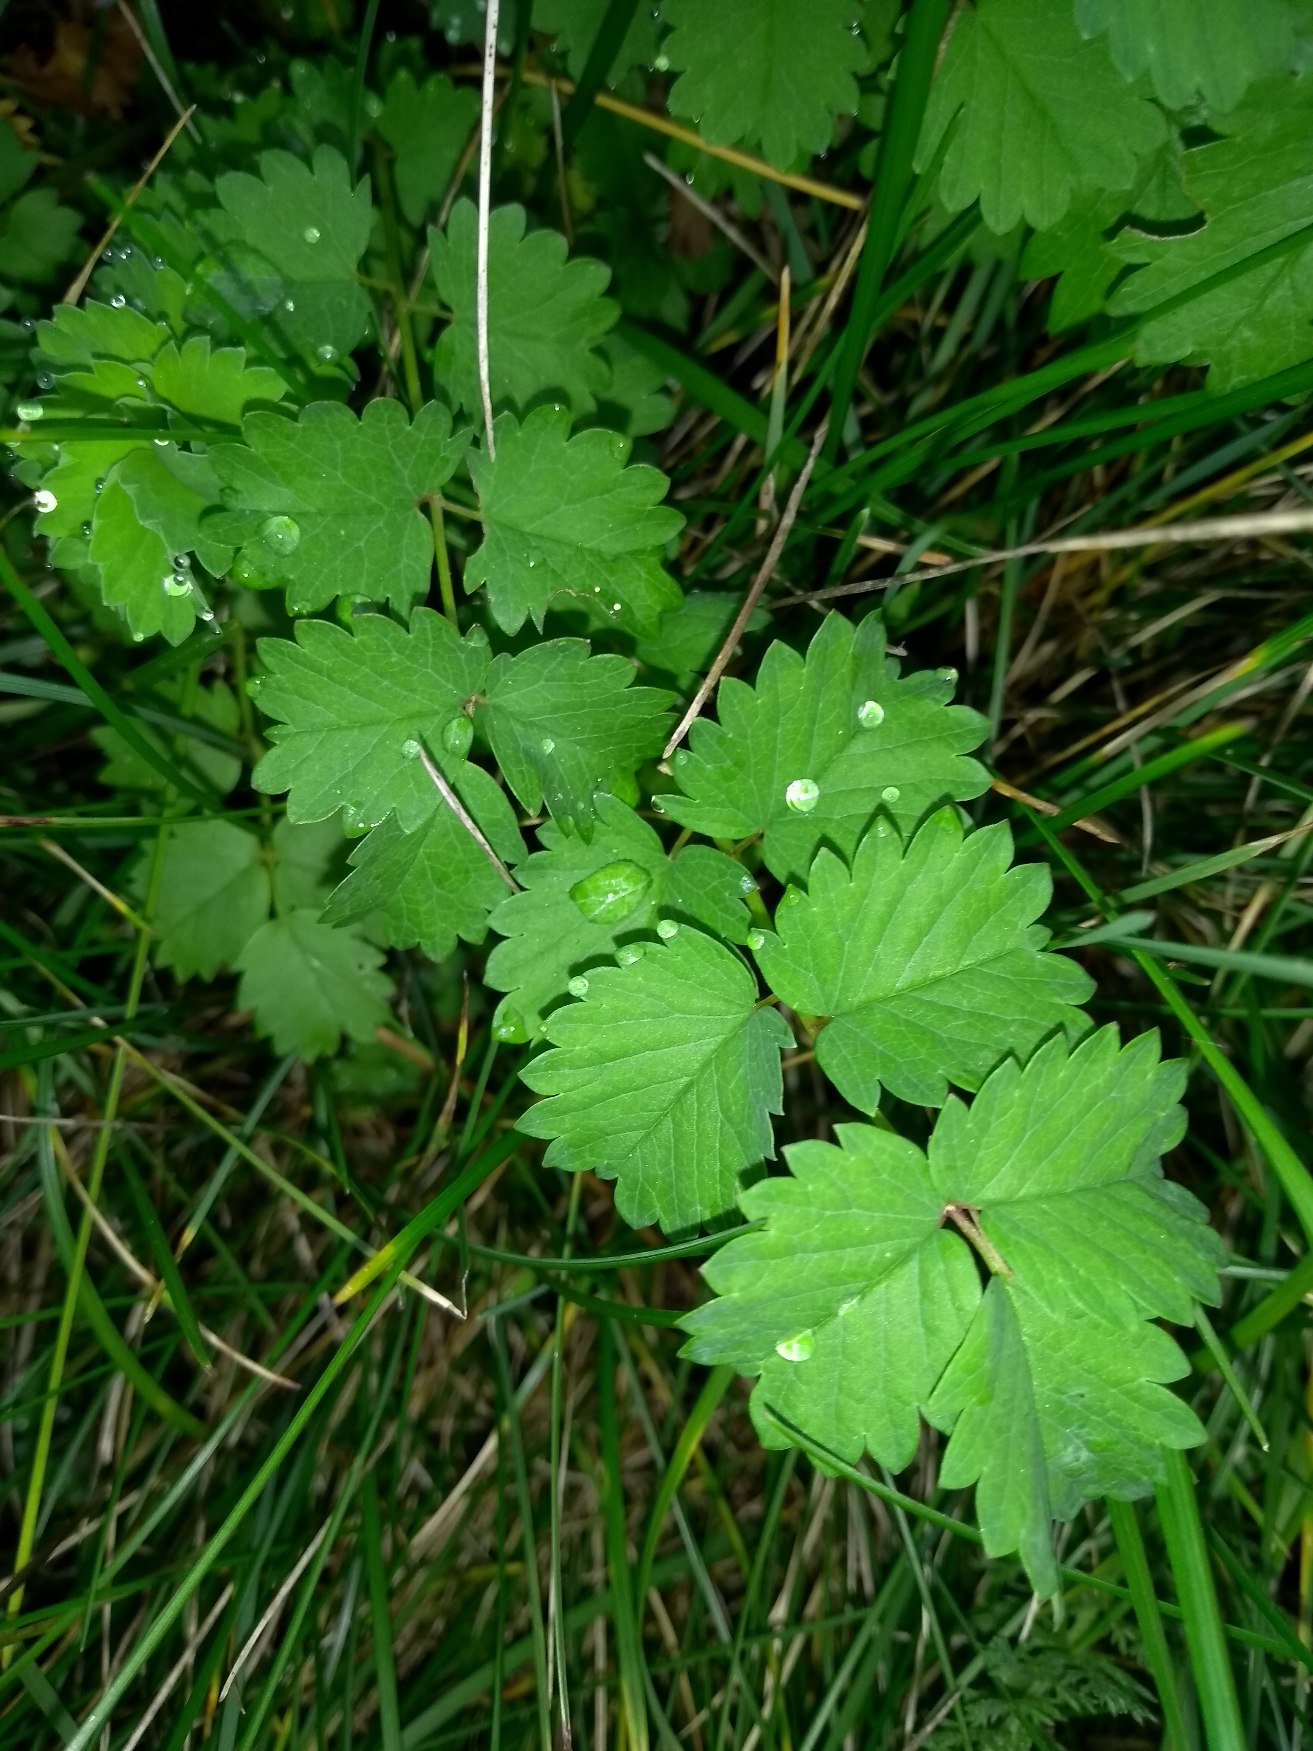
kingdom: Plantae
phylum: Tracheophyta
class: Magnoliopsida
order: Rosales
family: Rosaceae
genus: Poterium
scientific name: Poterium sanguisorba
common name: Bibernelle
